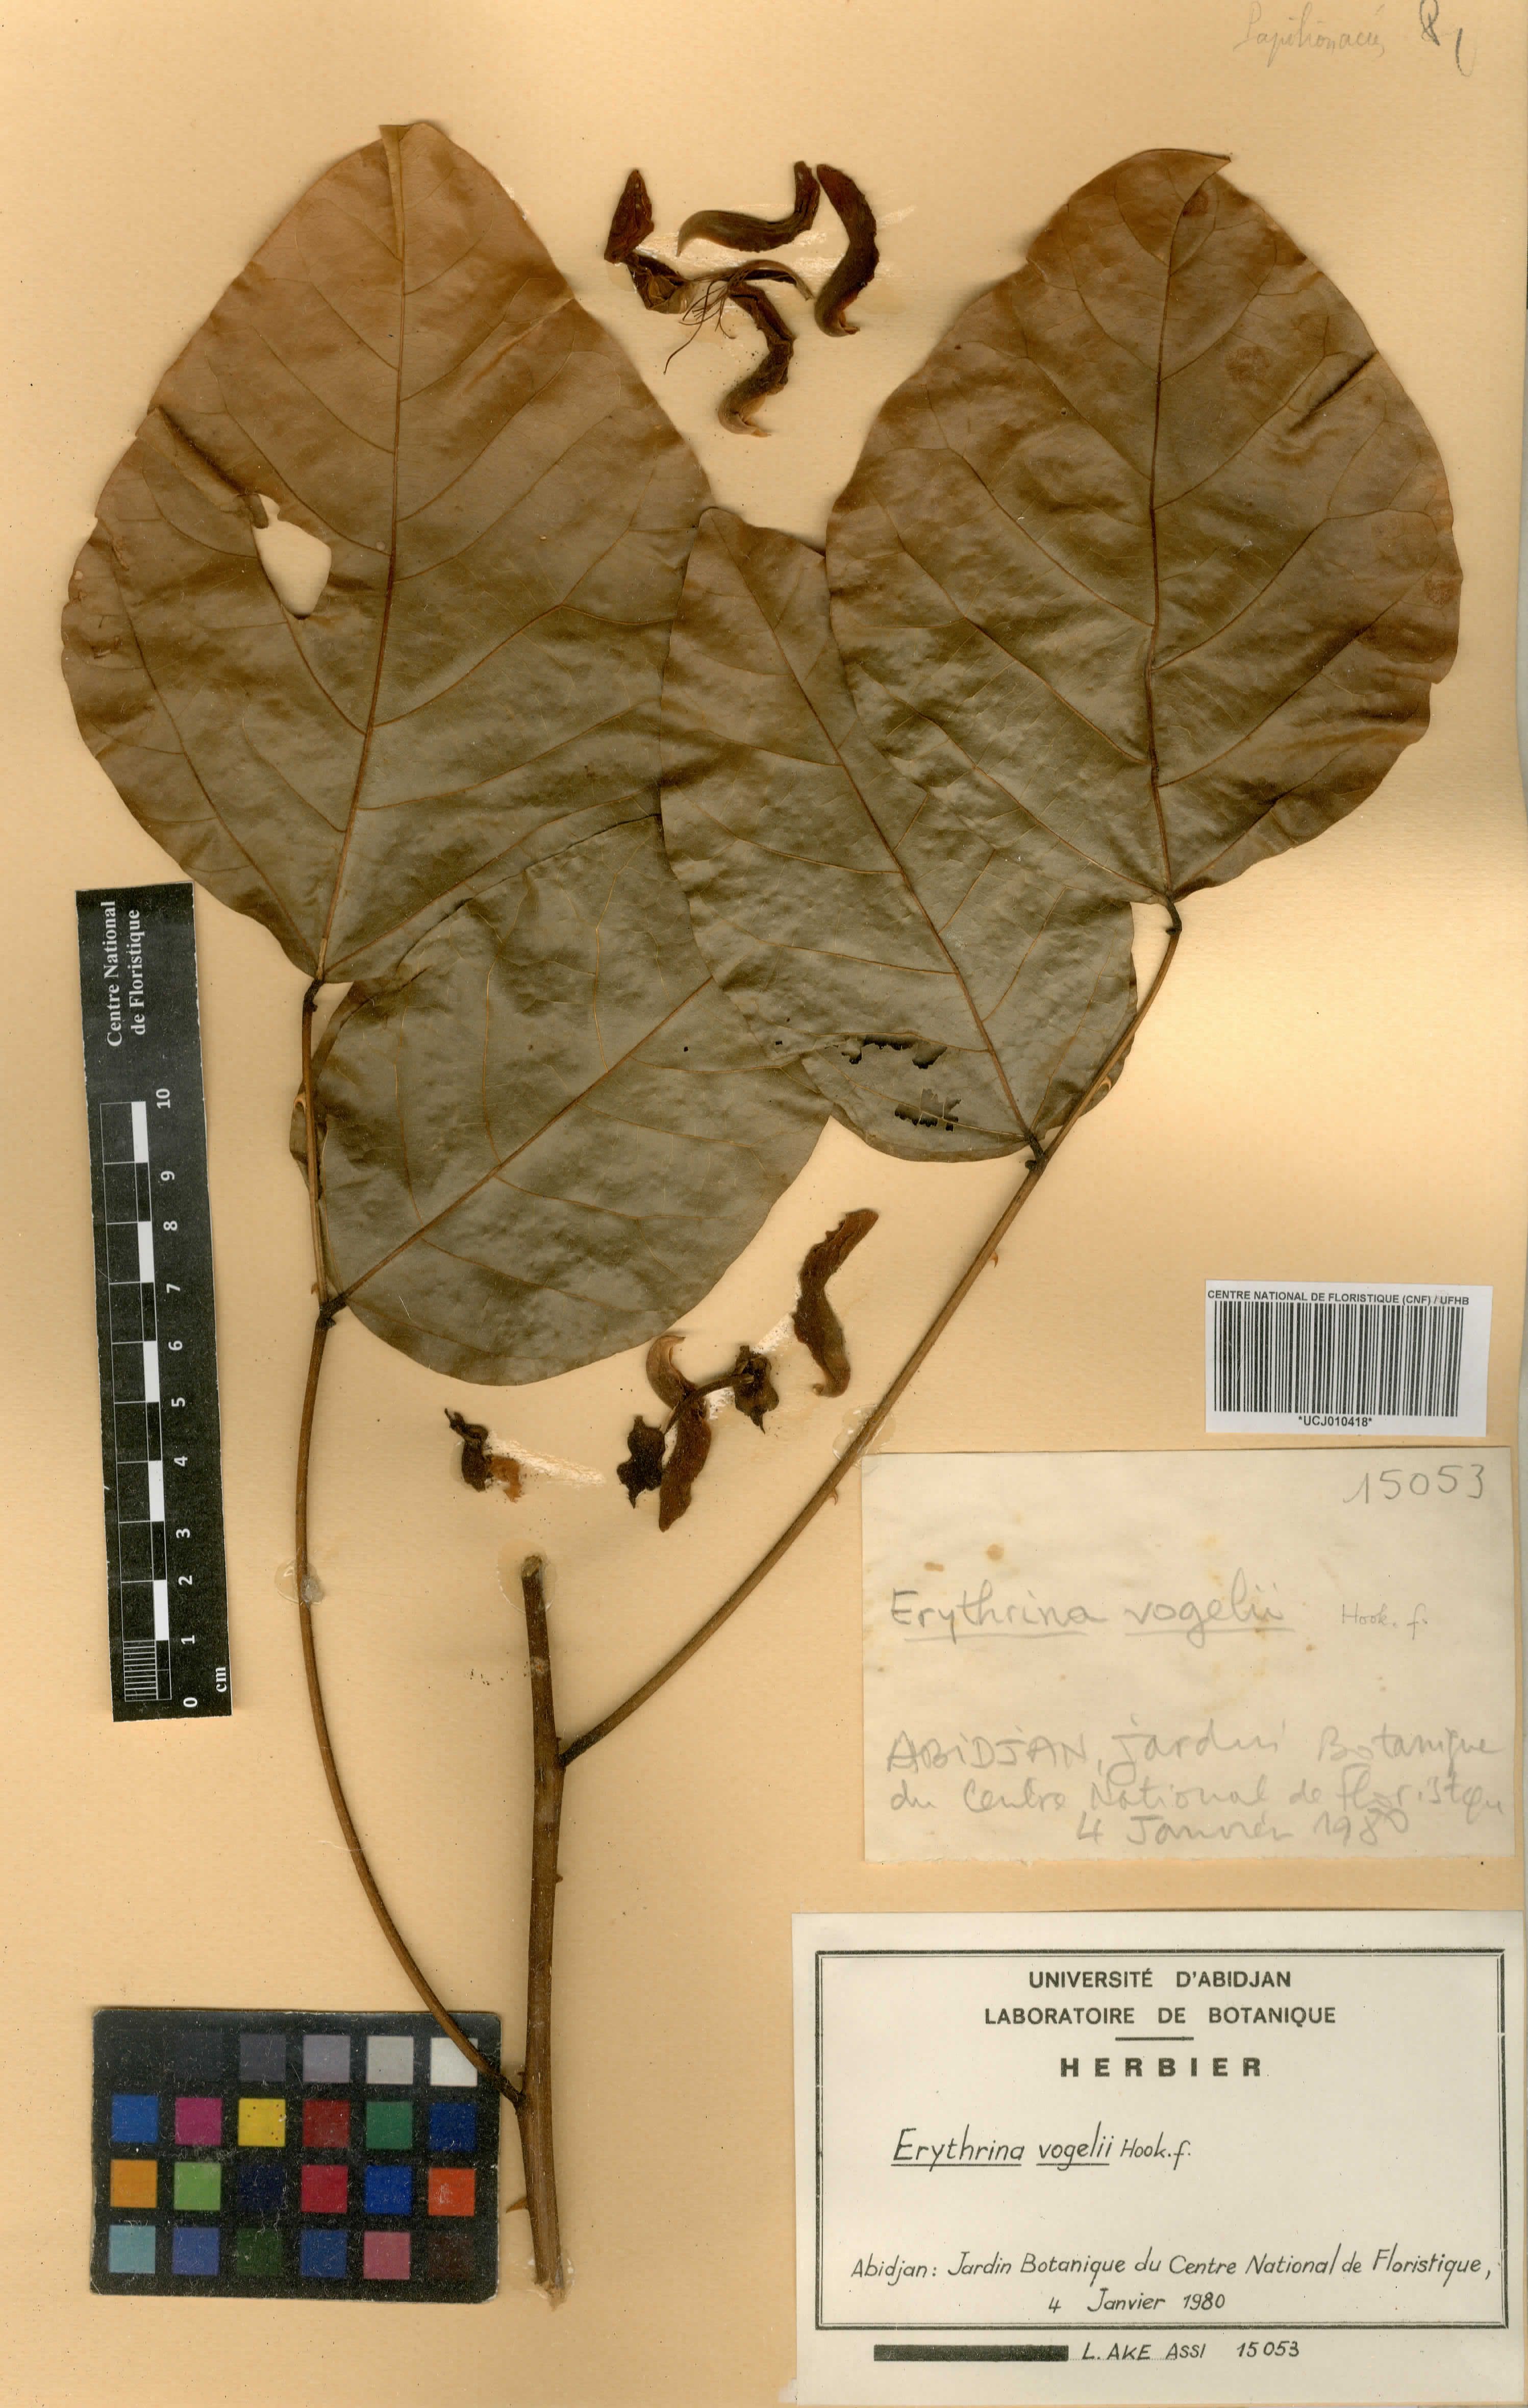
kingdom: Plantae
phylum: Tracheophyta
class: Magnoliopsida
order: Fabales
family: Fabaceae
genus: Erythrina
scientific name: Erythrina vogelii
